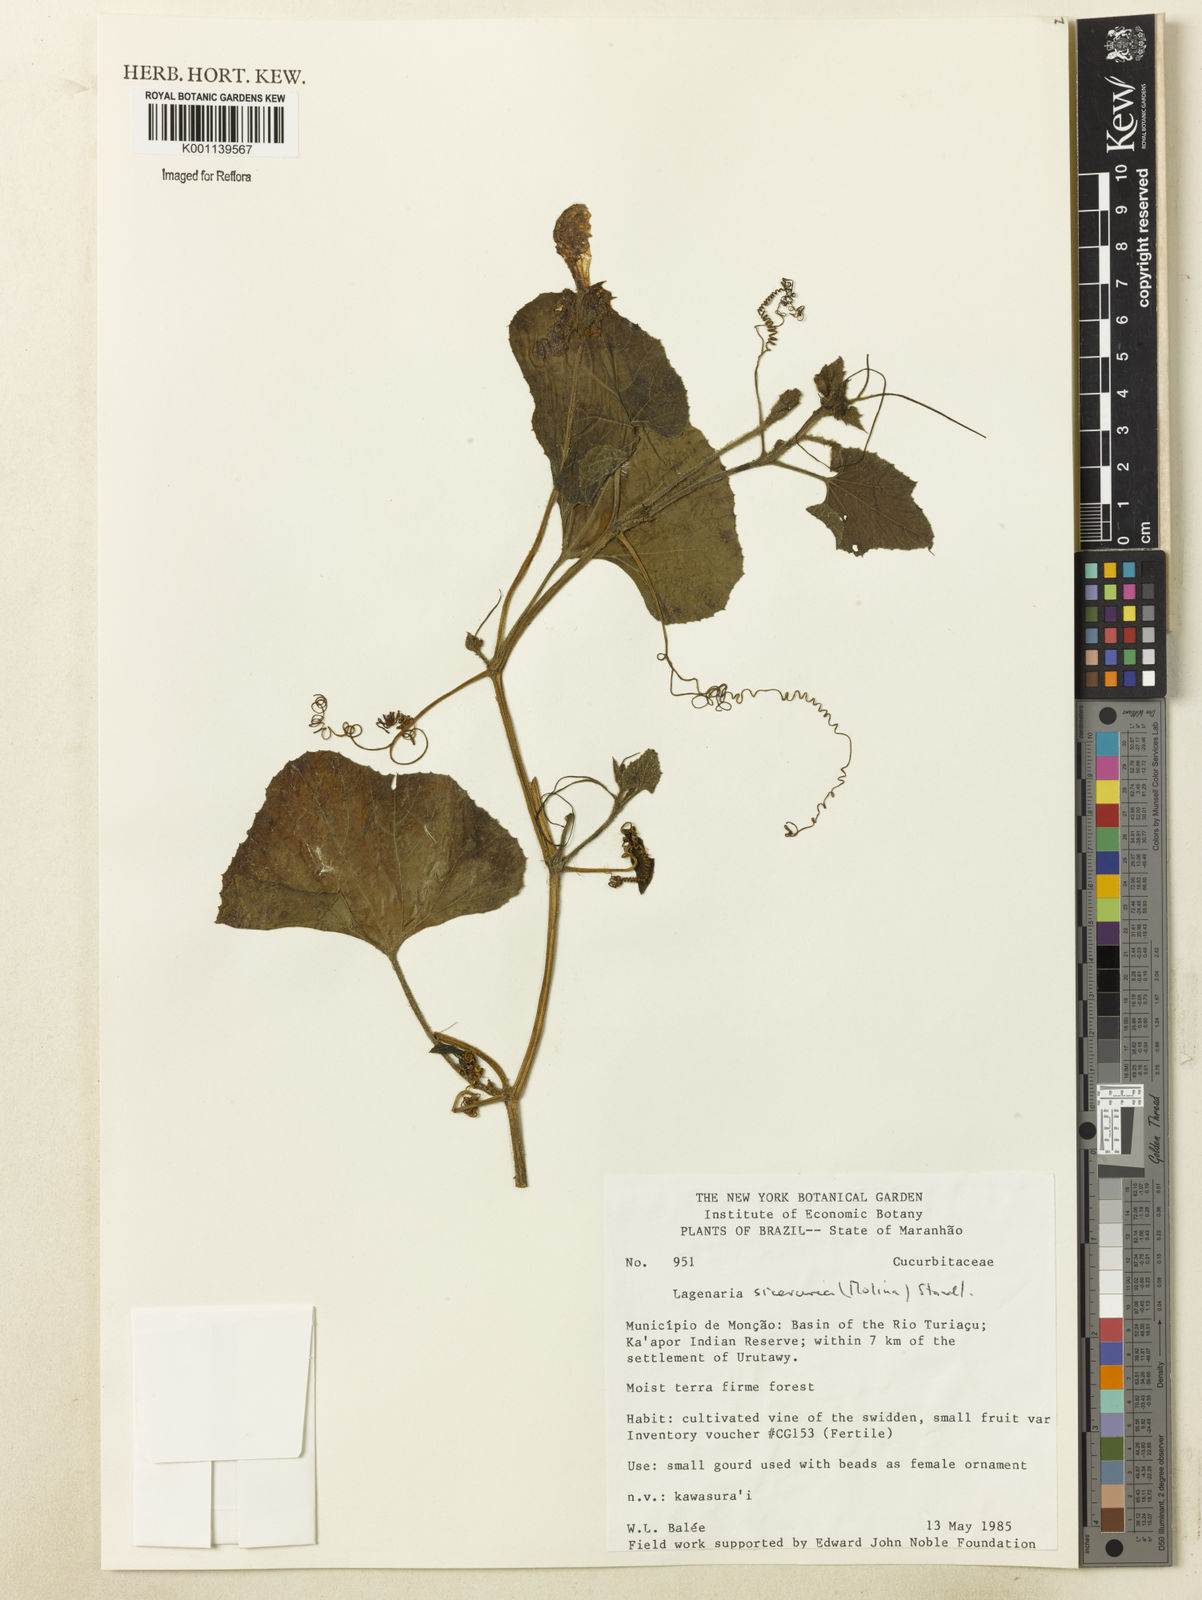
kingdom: Plantae
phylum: Tracheophyta
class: Magnoliopsida
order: Cucurbitales
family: Cucurbitaceae
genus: Lagenaria
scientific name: Lagenaria siceraria
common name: Bottle gourd
